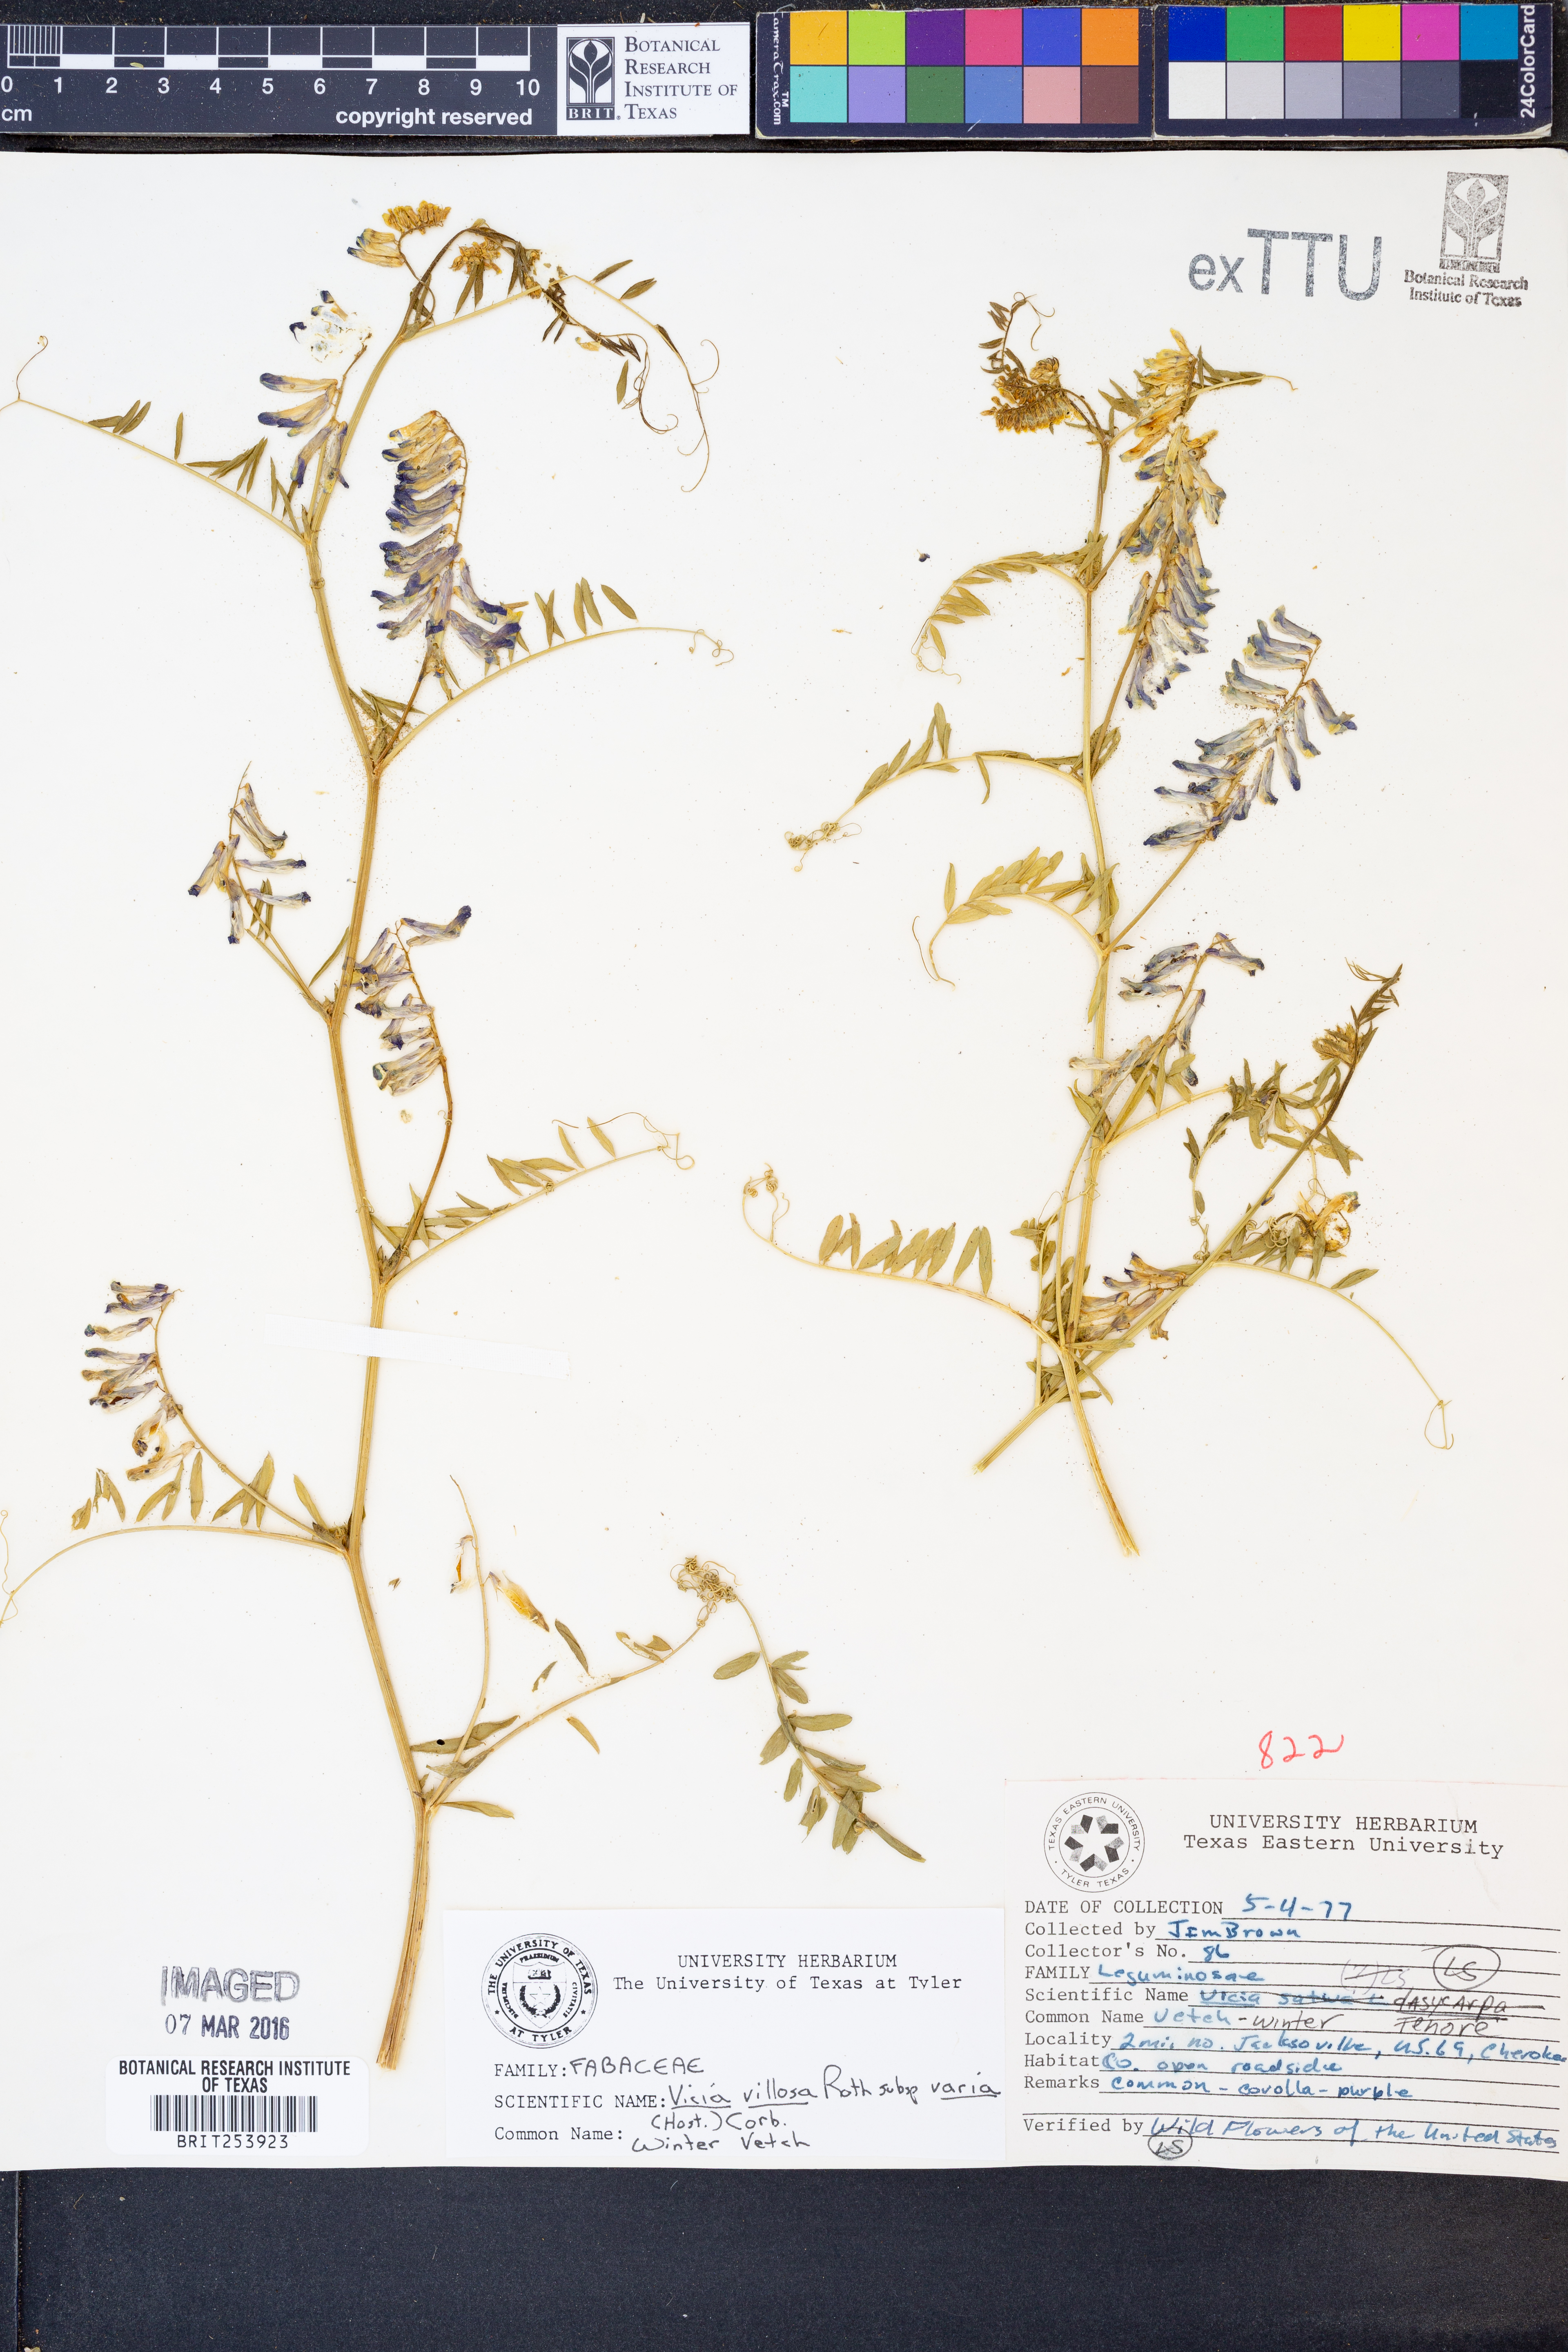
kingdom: Plantae
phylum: Tracheophyta
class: Magnoliopsida
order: Fabales
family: Fabaceae
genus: Vicia
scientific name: Vicia villosa
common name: Fodder vetch
